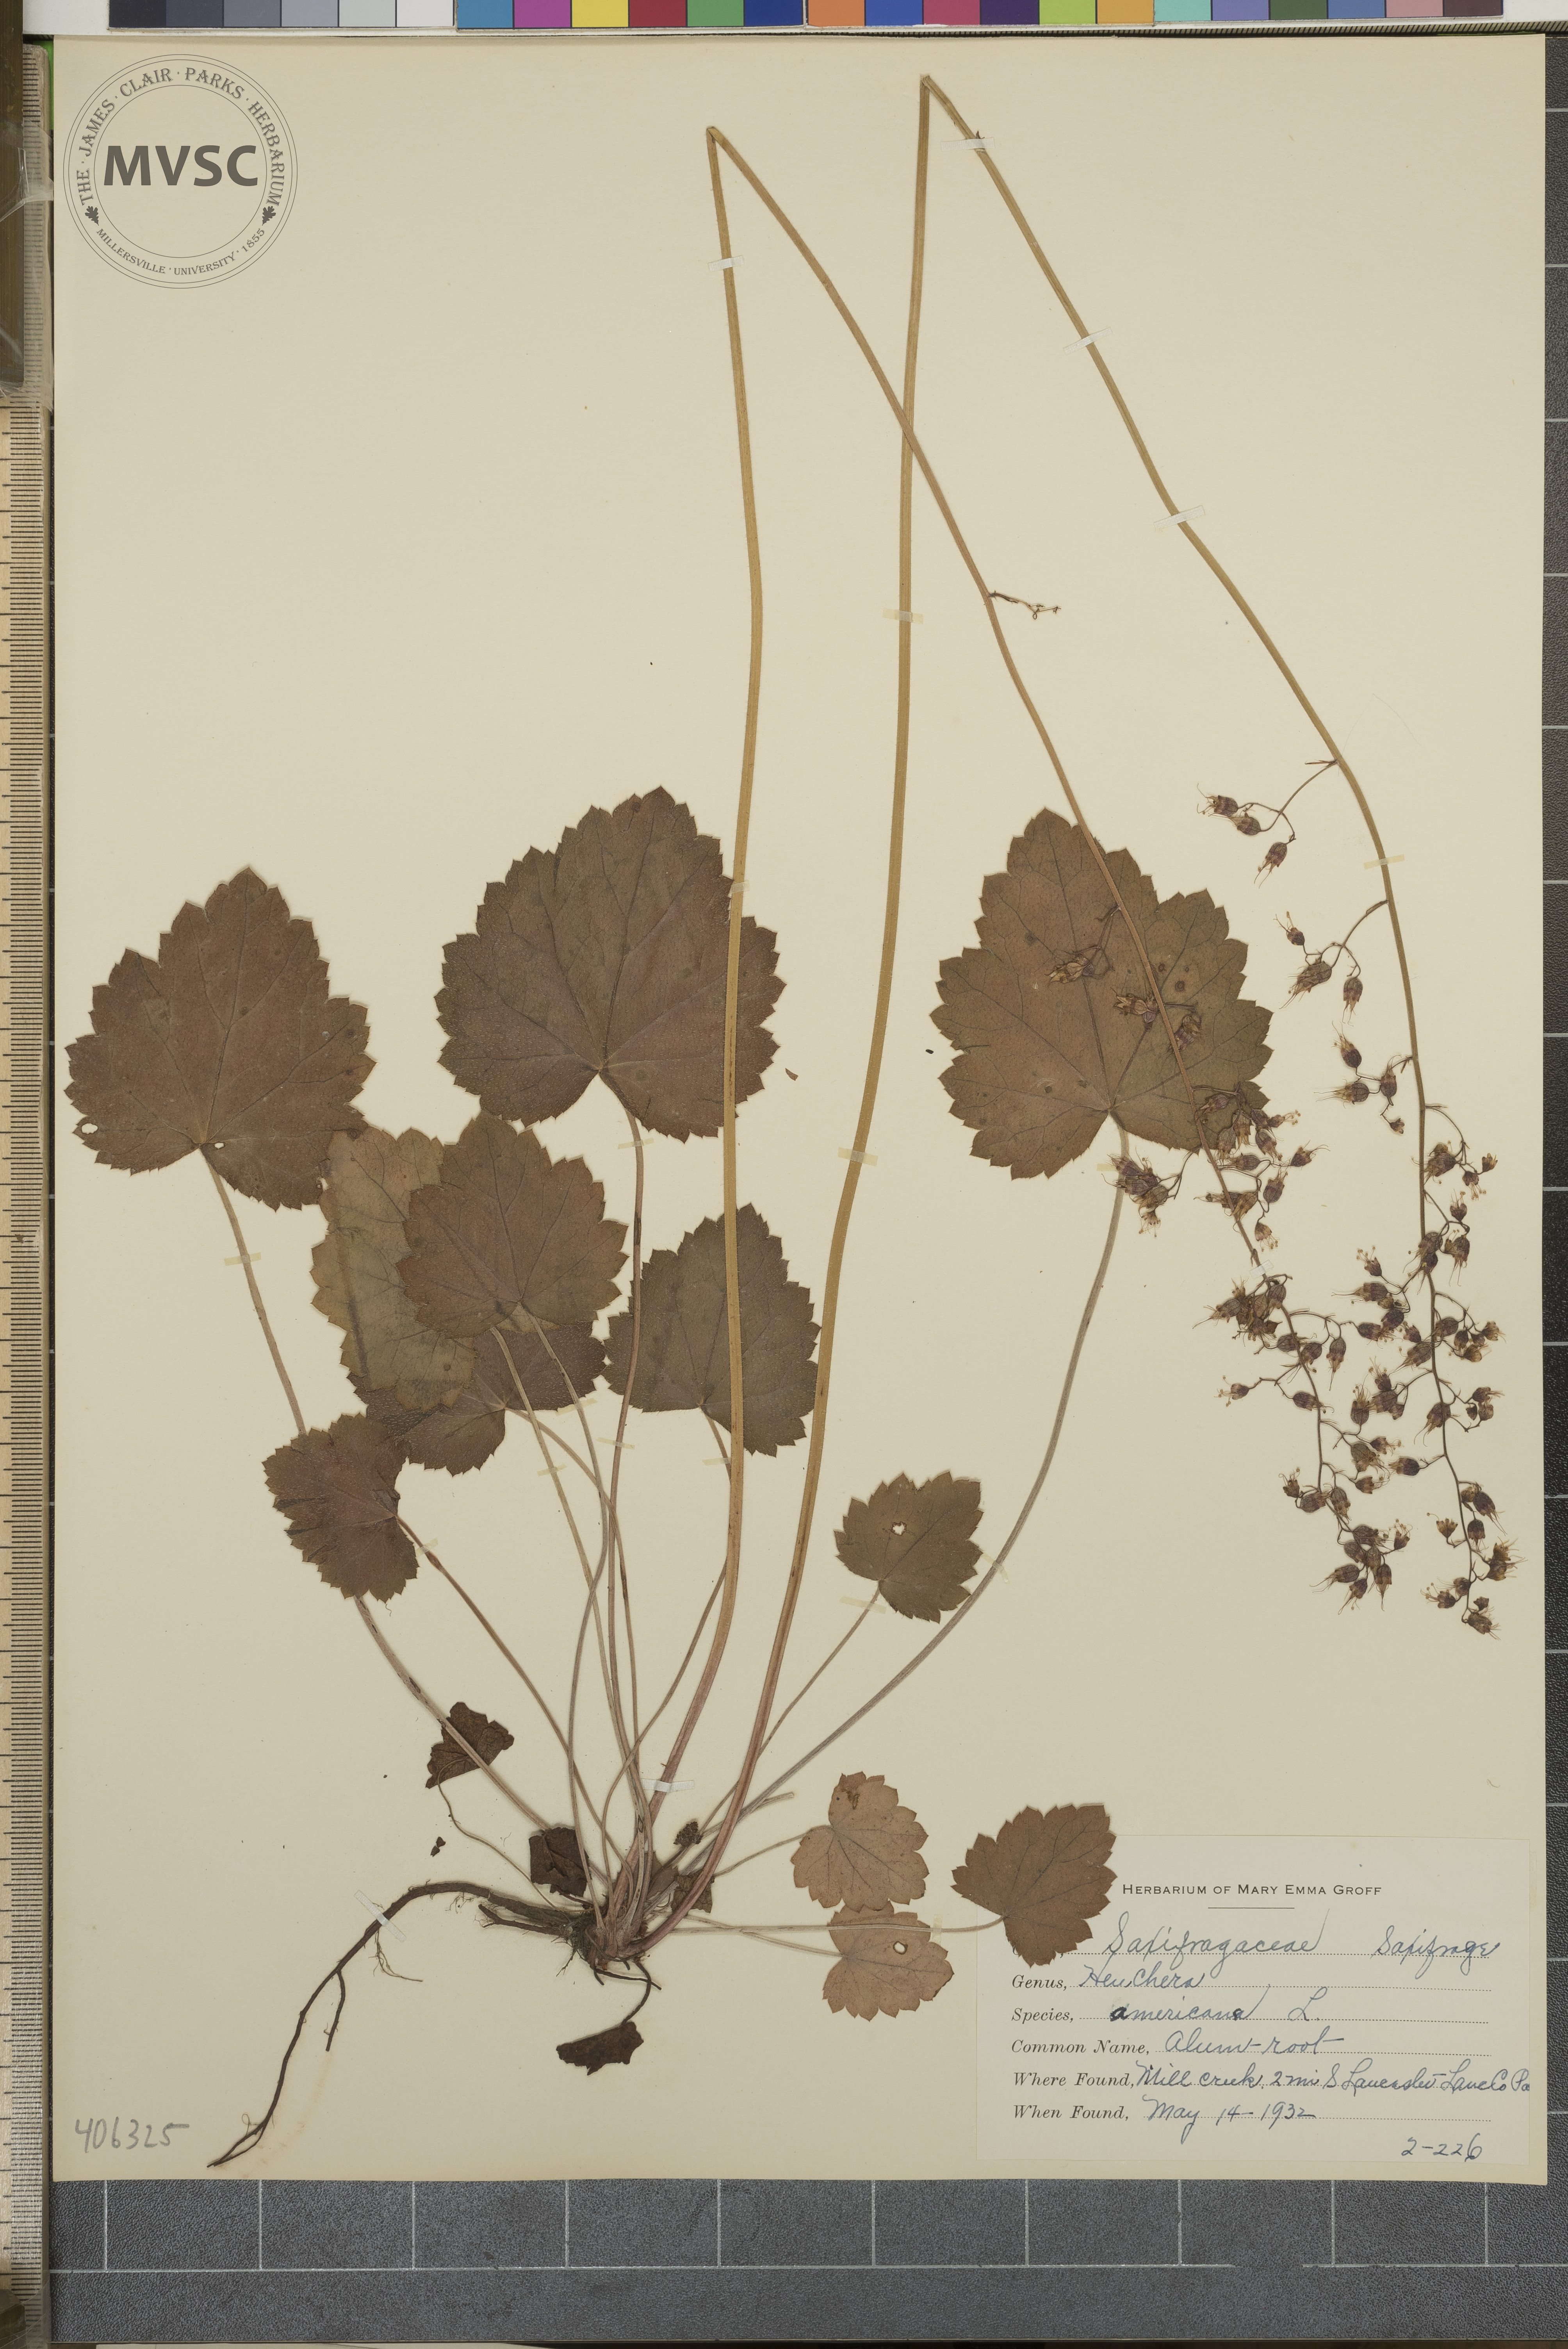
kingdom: Plantae
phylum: Tracheophyta
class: Magnoliopsida
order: Saxifragales
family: Saxifragaceae
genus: Heuchera
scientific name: Heuchera americana
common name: Alumroot
